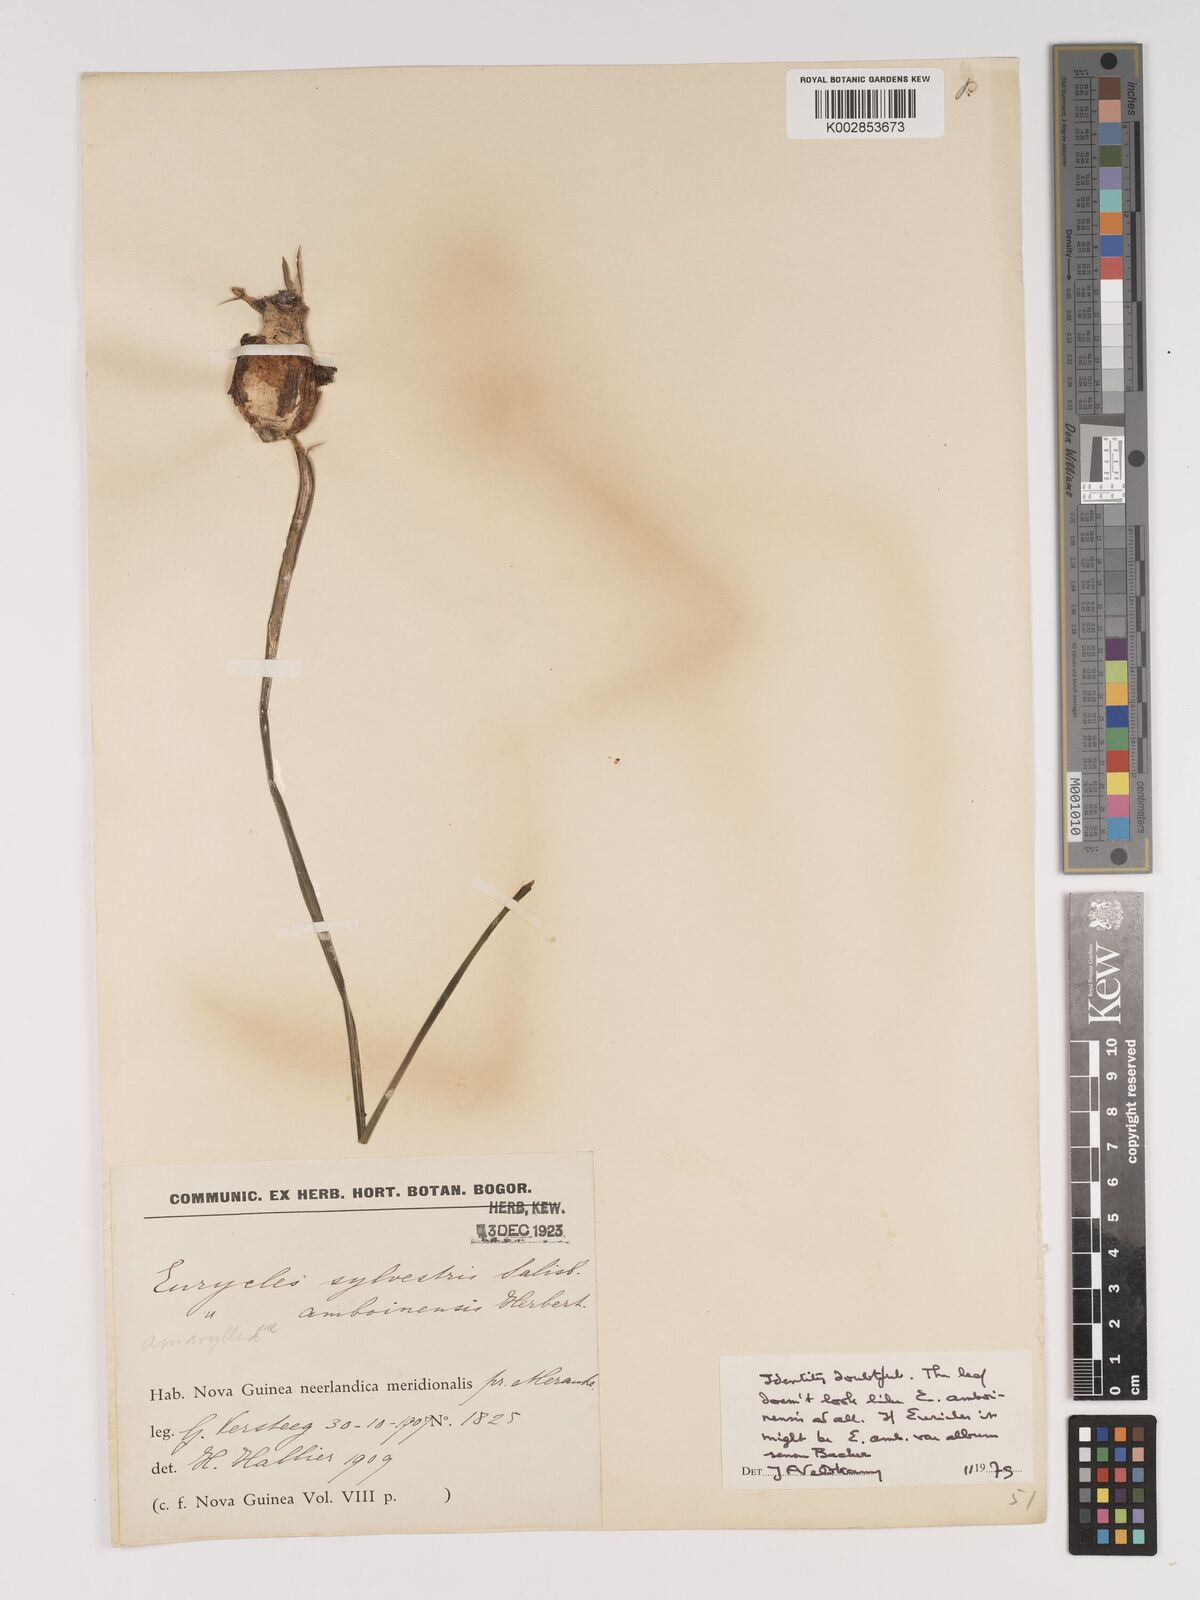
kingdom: Plantae
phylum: Tracheophyta
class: Liliopsida
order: Asparagales
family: Amaryllidaceae
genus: Proiphys
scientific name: Proiphys
